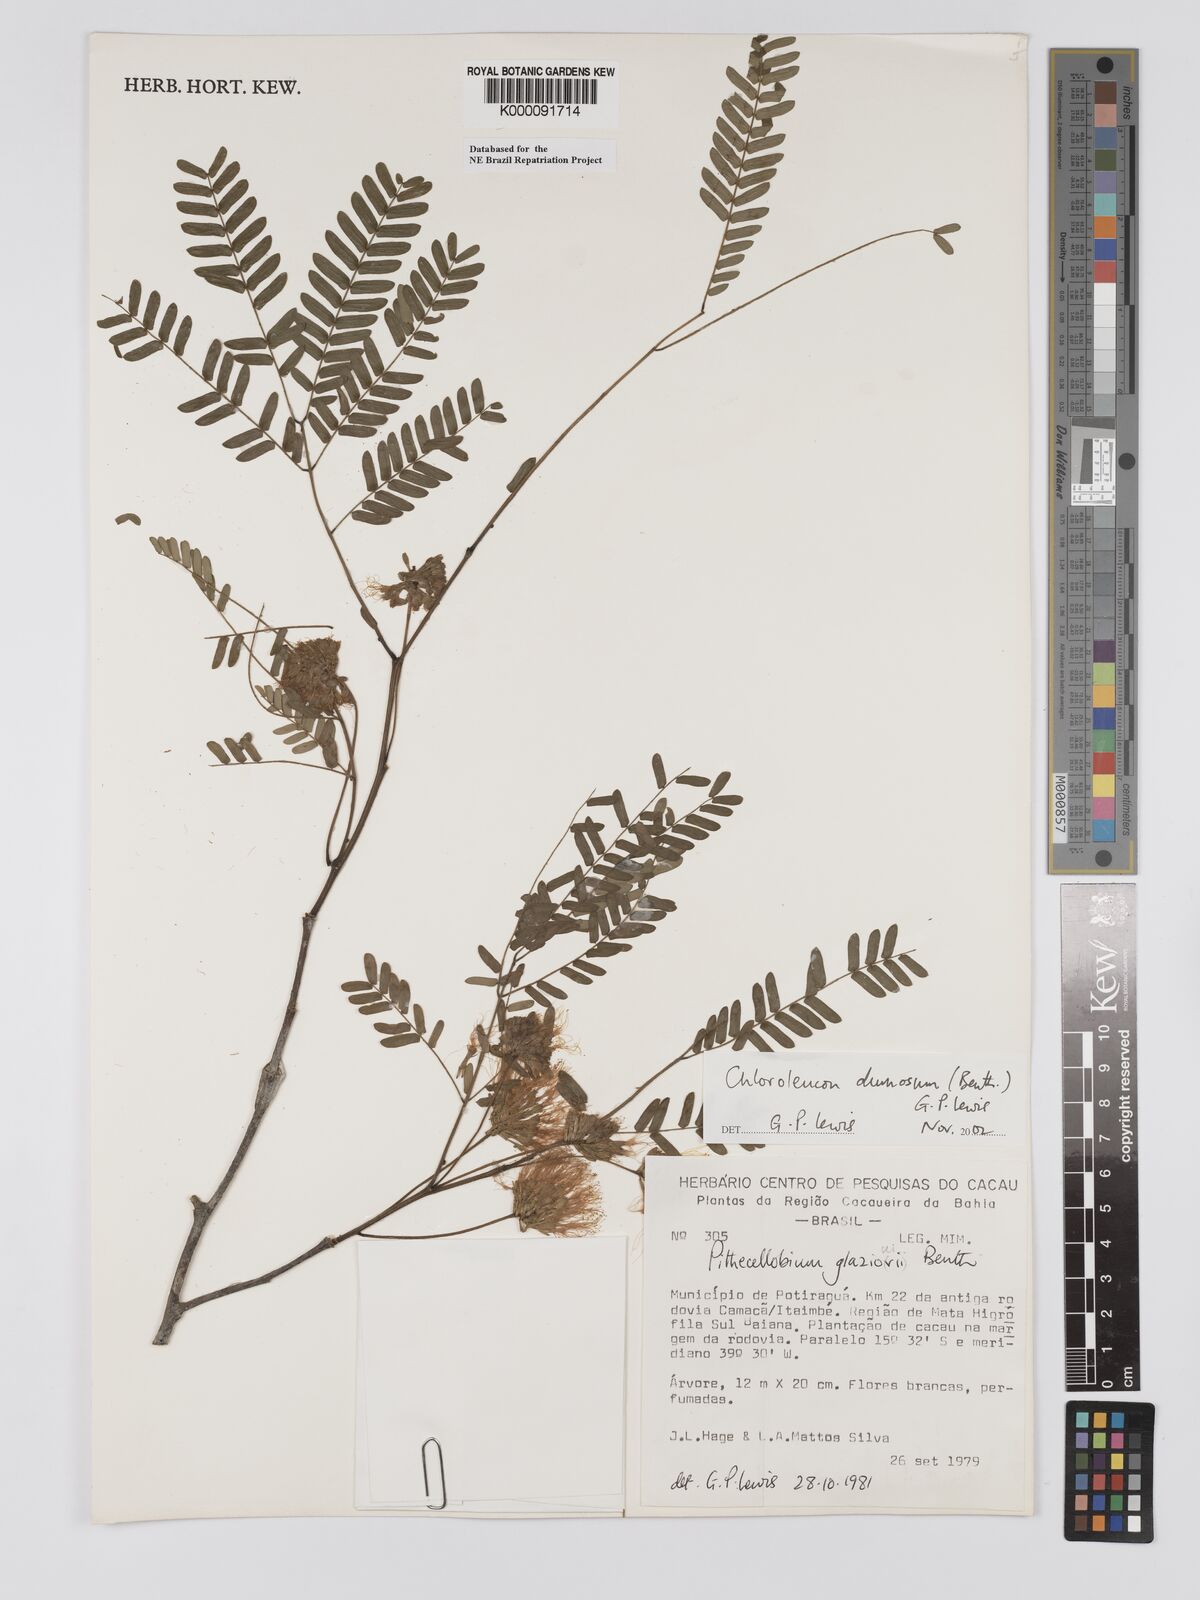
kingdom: Plantae
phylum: Tracheophyta
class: Magnoliopsida
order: Fabales
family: Fabaceae
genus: Chloroleucon
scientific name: Chloroleucon dumosum
